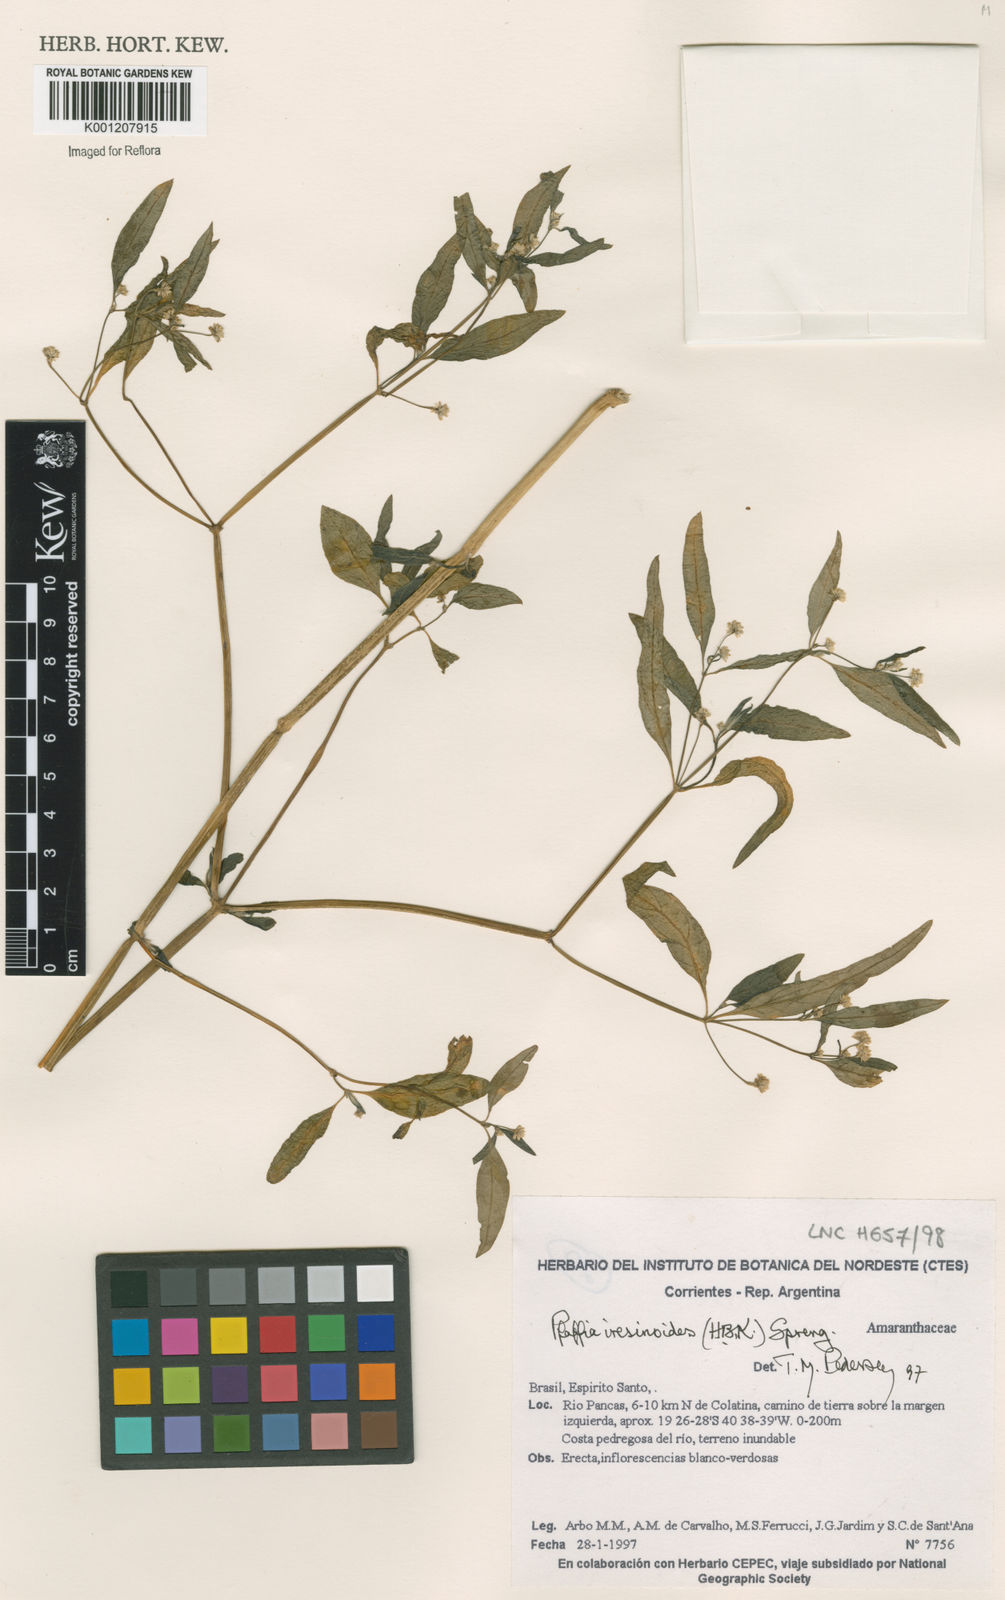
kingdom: Plantae
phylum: Tracheophyta
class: Magnoliopsida
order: Caryophyllales
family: Amaranthaceae
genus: Pfaffia
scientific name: Pfaffia iresinoides
